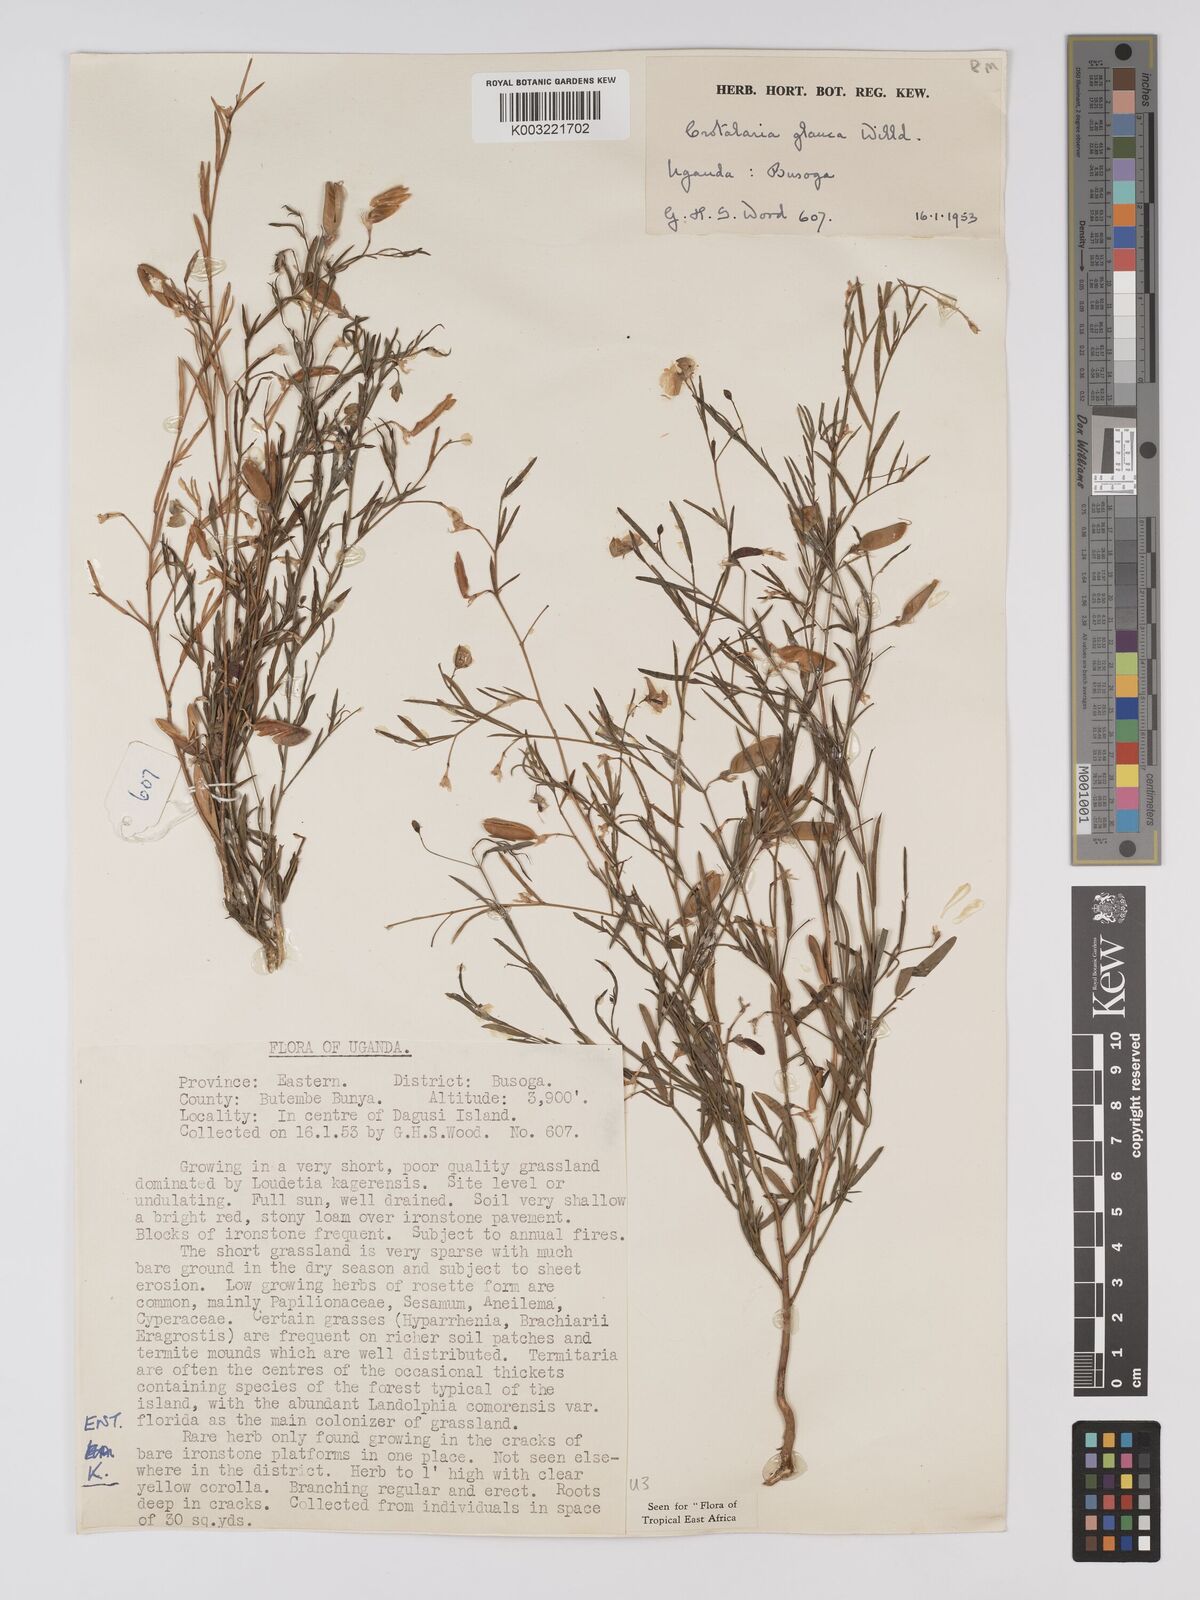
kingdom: Plantae
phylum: Tracheophyta
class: Magnoliopsida
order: Fabales
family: Fabaceae
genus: Crotalaria
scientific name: Crotalaria glauca
